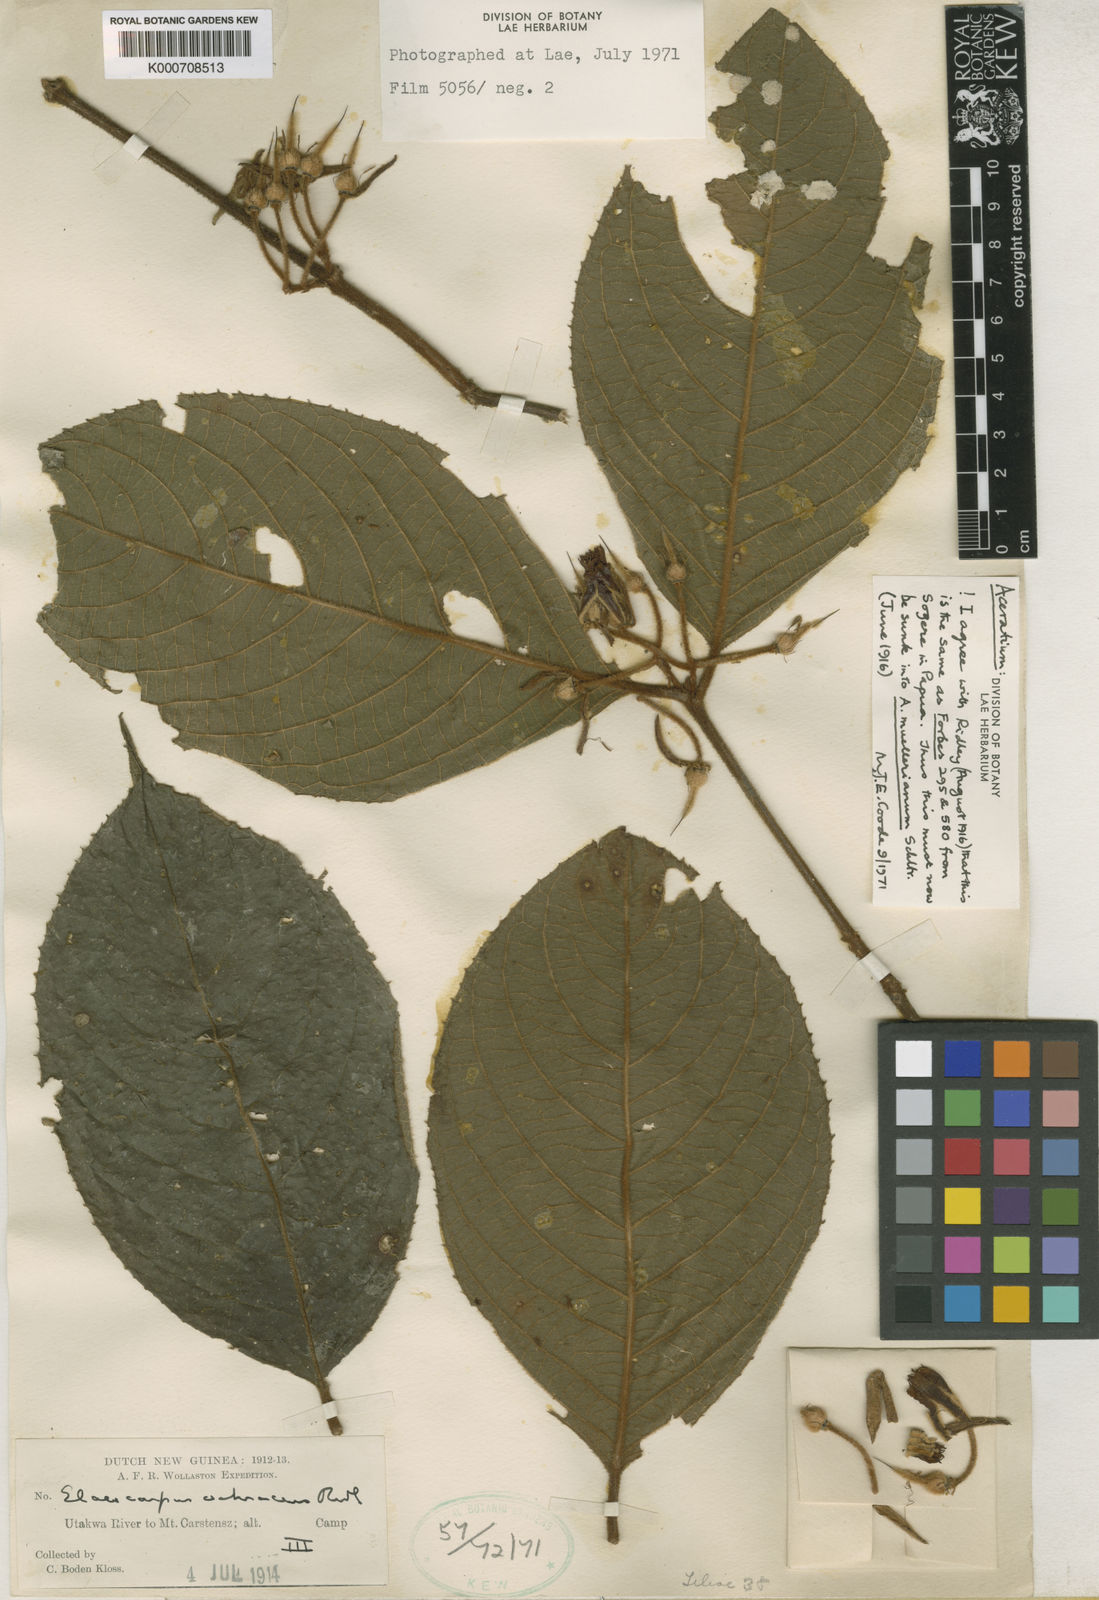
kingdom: Plantae
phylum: Tracheophyta
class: Magnoliopsida
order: Oxalidales
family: Elaeocarpaceae
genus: Aceratium
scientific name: Aceratium muellerianum
